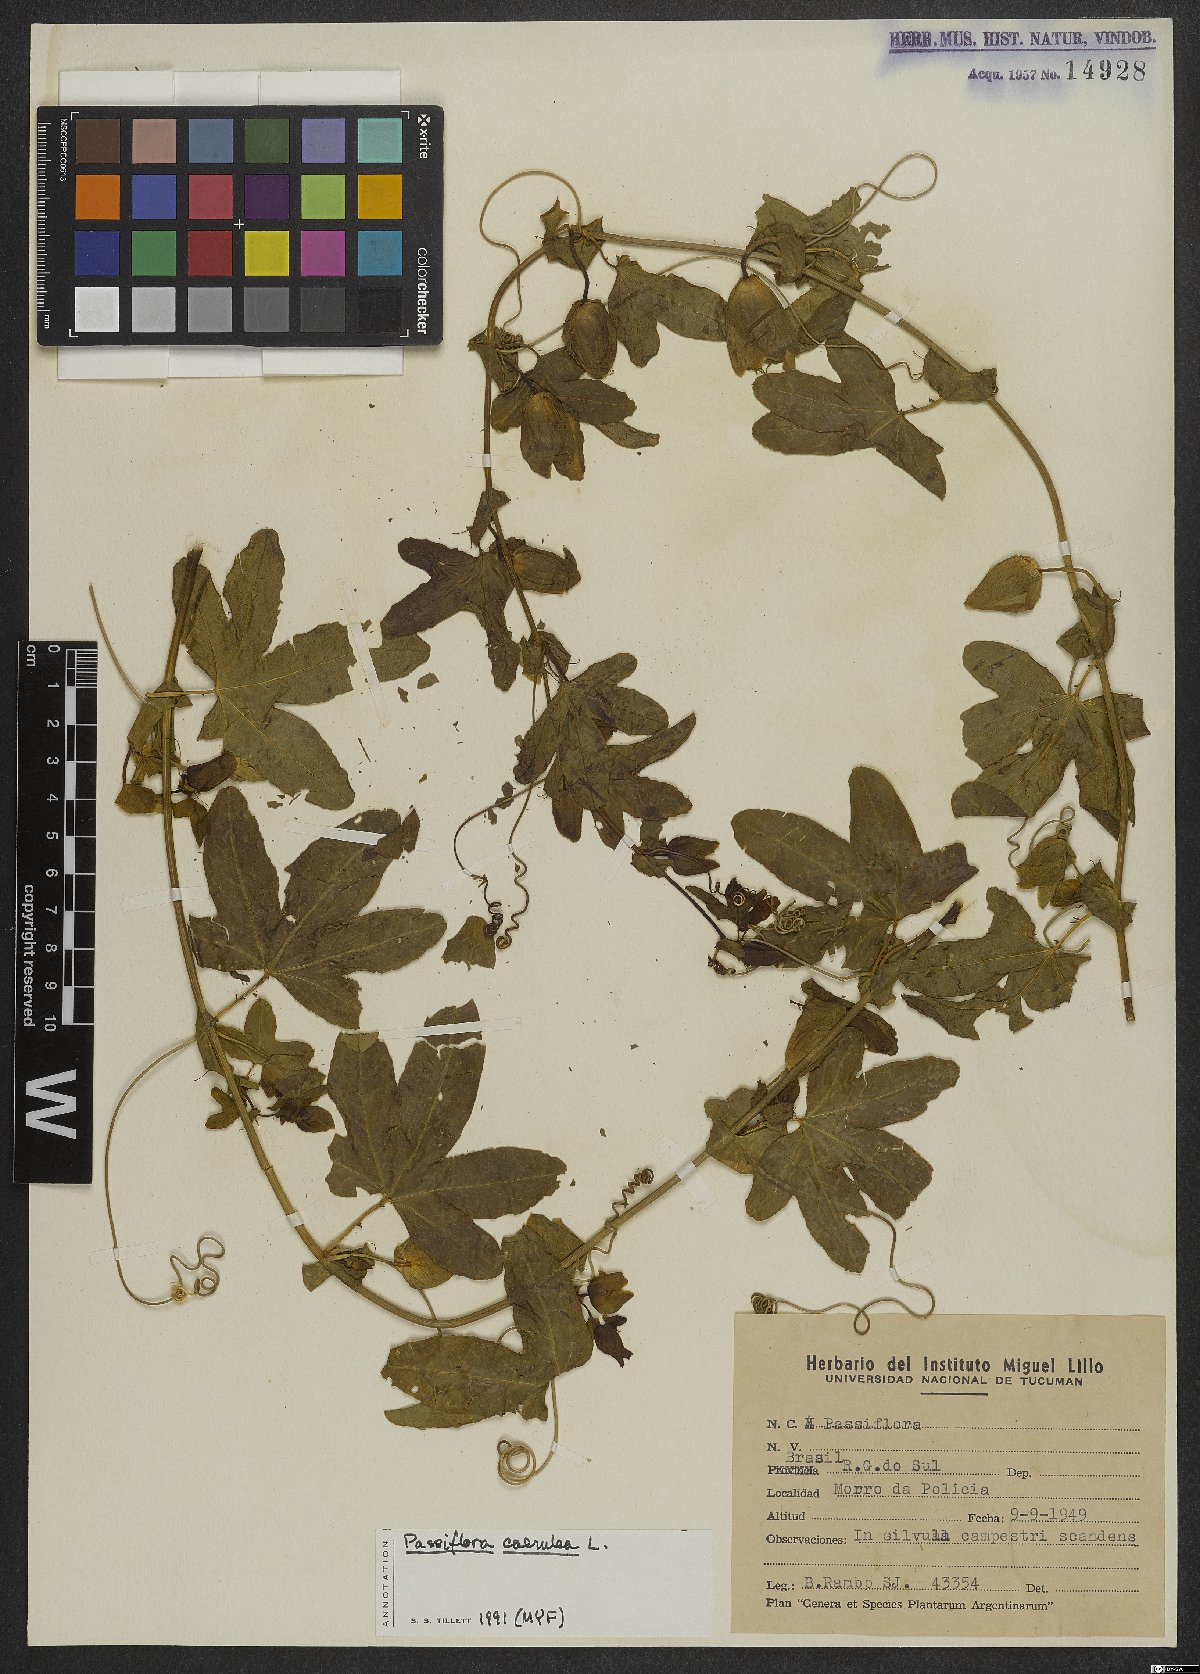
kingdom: Plantae
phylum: Tracheophyta
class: Magnoliopsida
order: Malpighiales
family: Passifloraceae
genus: Passiflora
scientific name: Passiflora caerulea
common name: Blue passionflower
